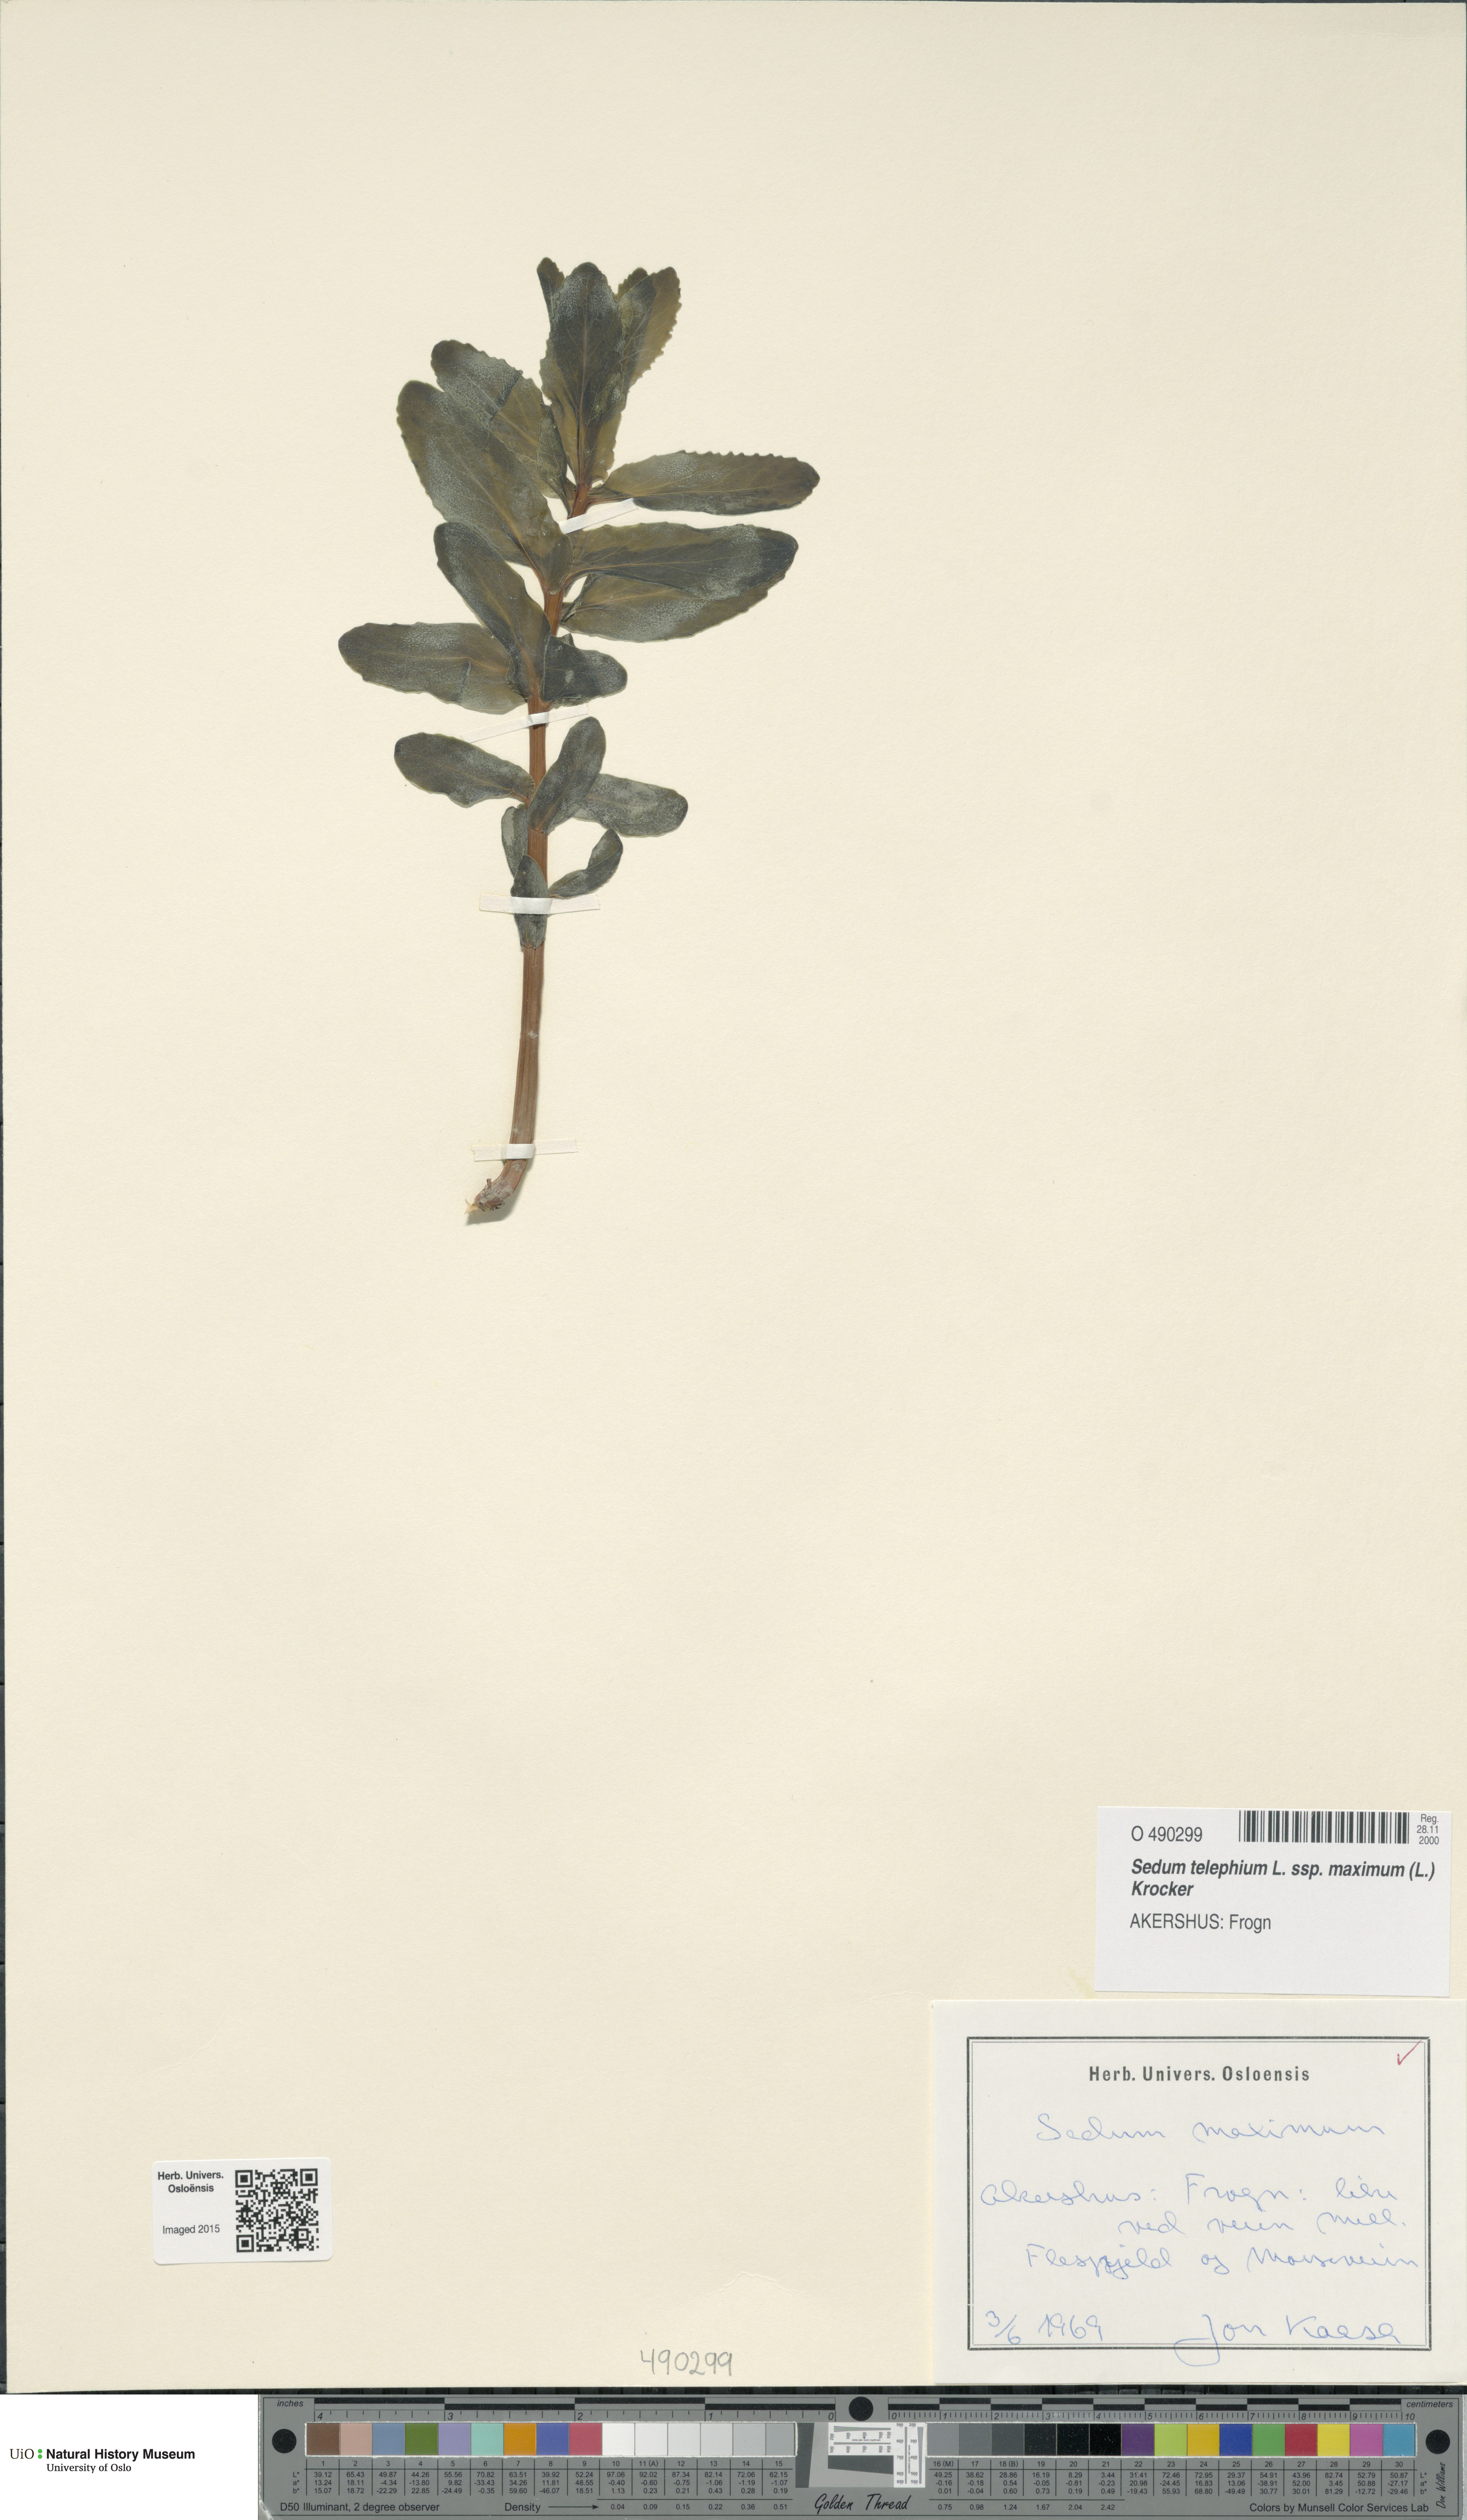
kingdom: Plantae
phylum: Tracheophyta
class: Magnoliopsida
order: Saxifragales
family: Crassulaceae
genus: Hylotelephium
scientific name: Hylotelephium maximum
